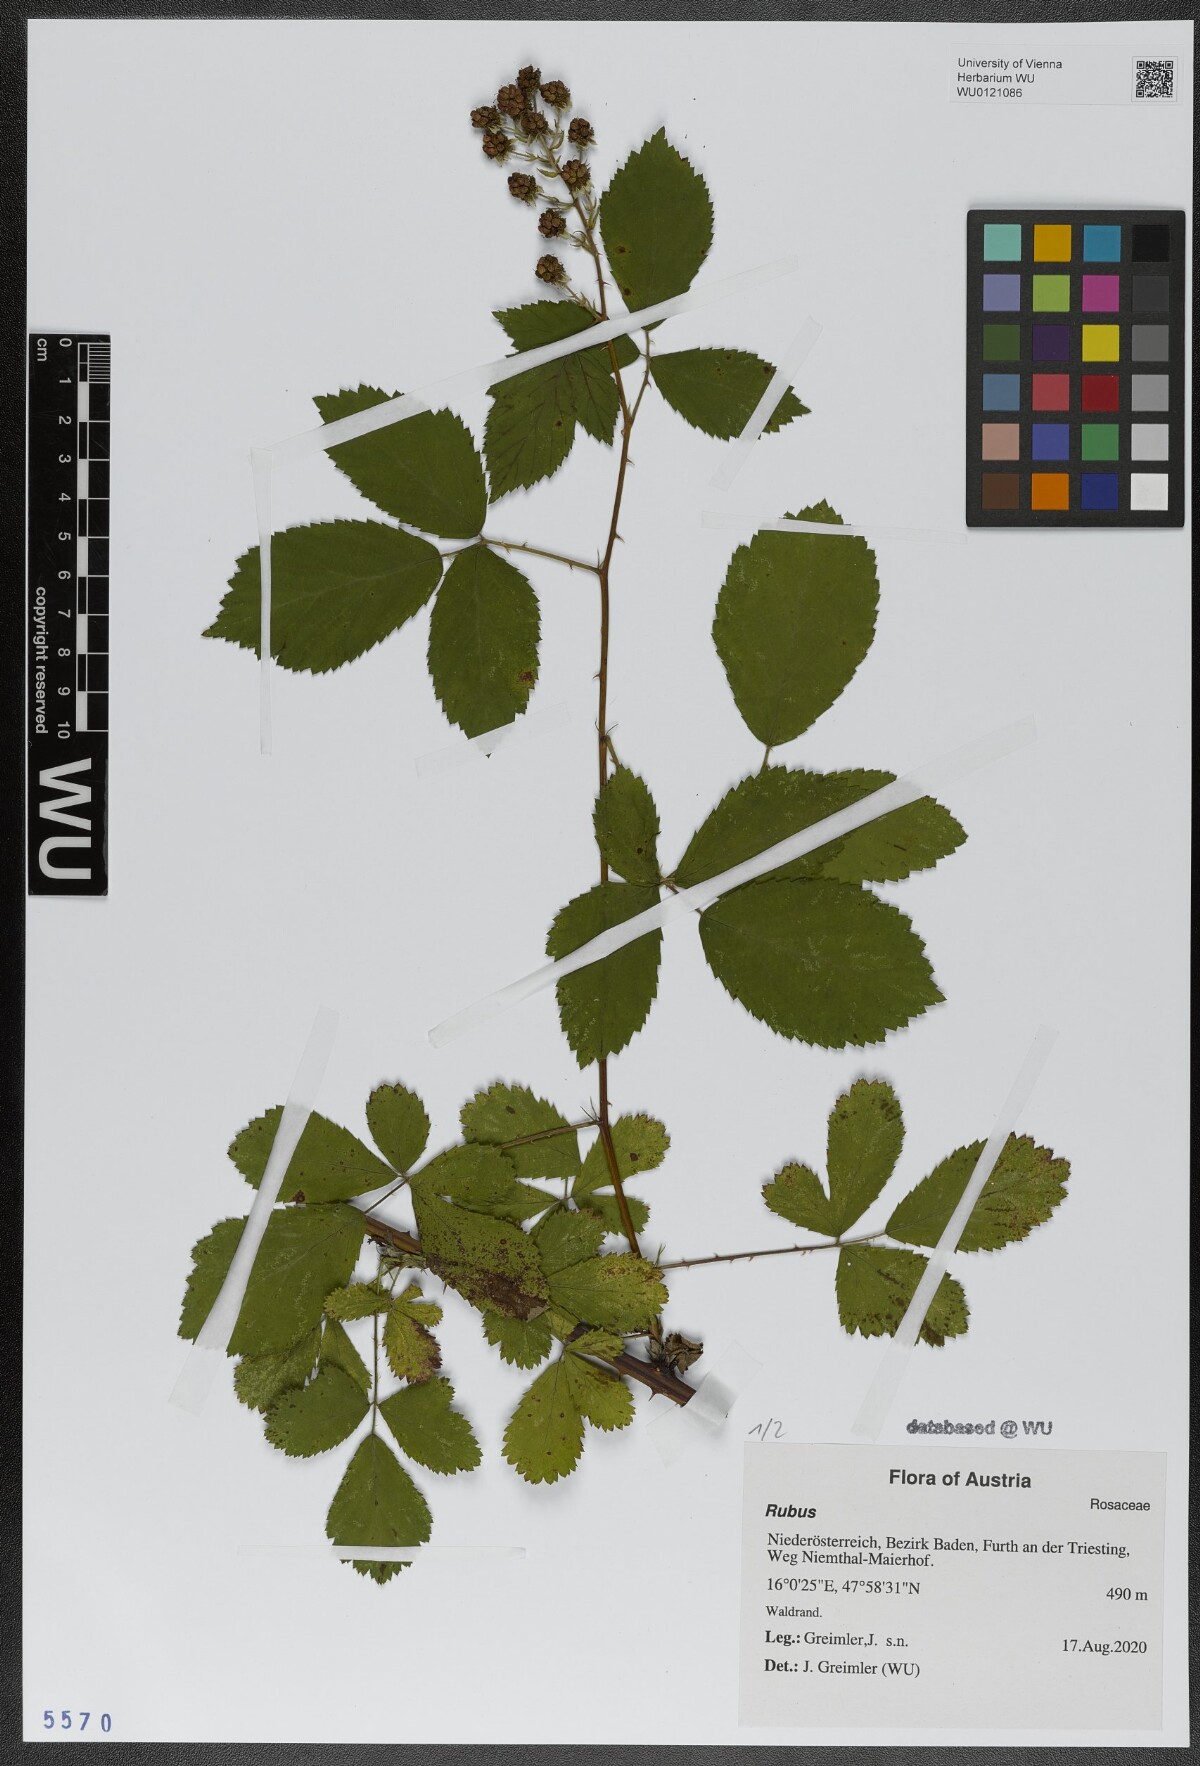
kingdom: Plantae
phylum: Tracheophyta
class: Magnoliopsida
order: Rosales
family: Rosaceae
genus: Rubus
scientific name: Rubus
